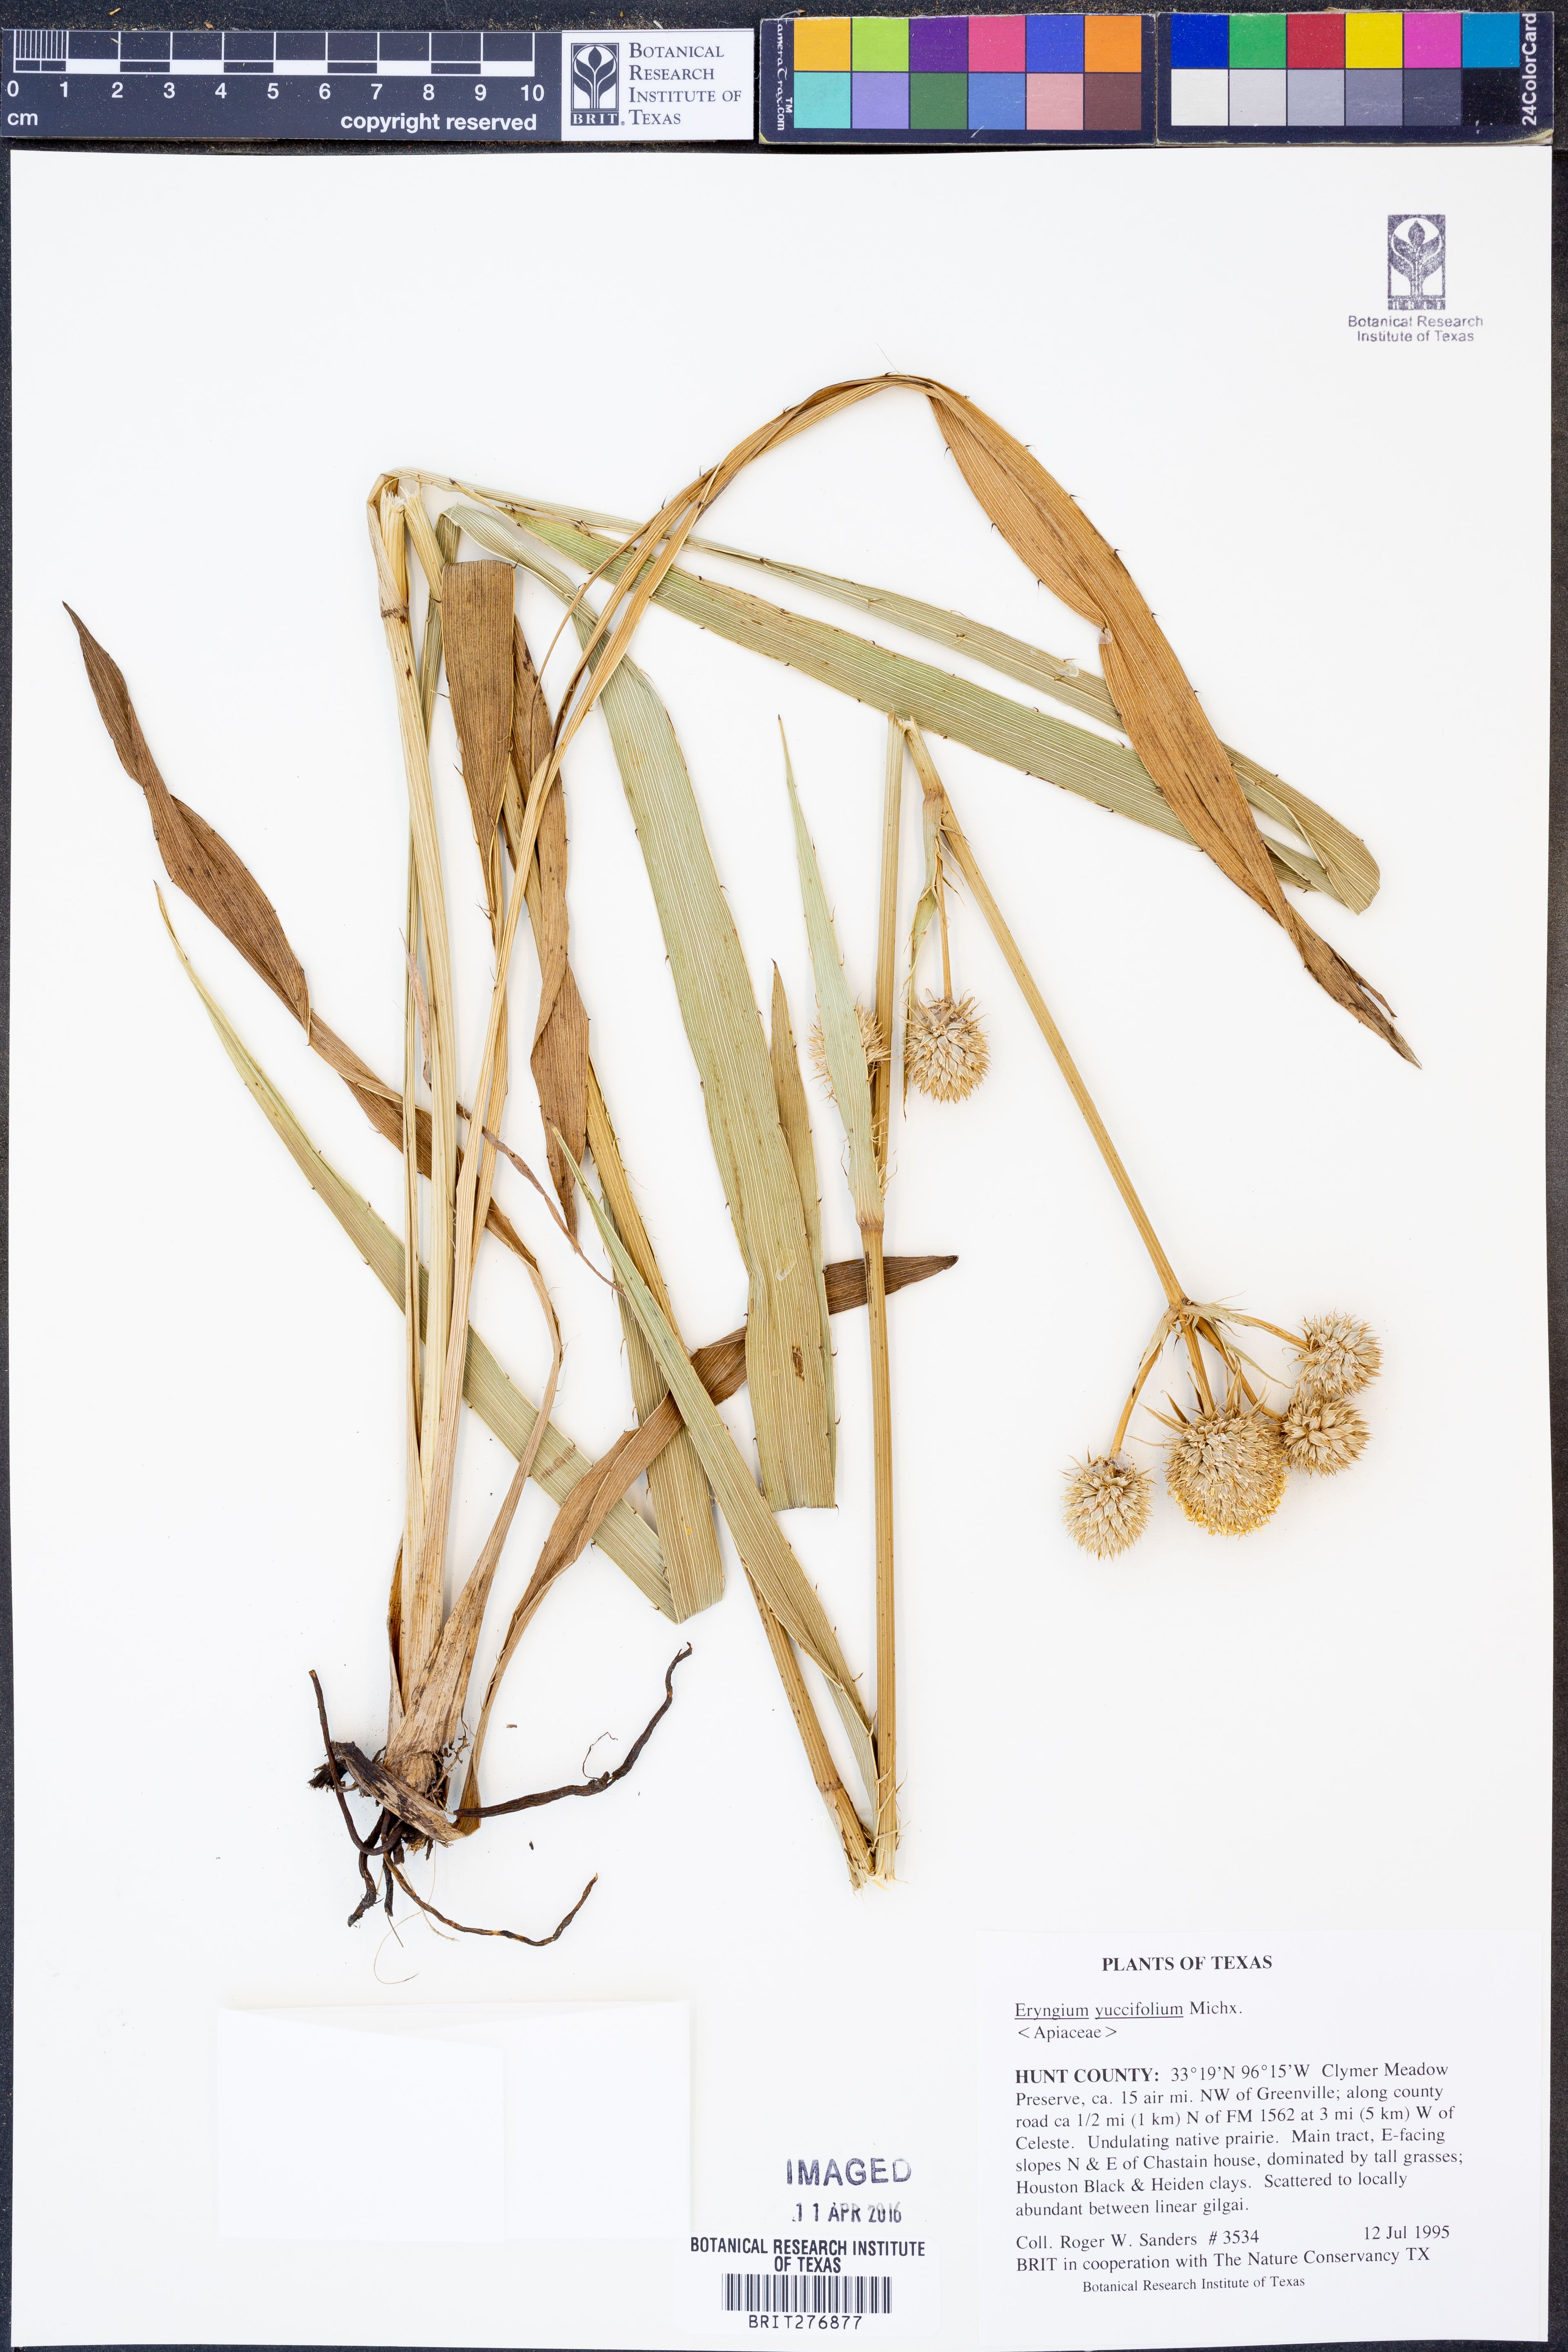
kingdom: Plantae
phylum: Tracheophyta
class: Magnoliopsida
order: Apiales
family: Apiaceae
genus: Eryngium
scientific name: Eryngium yuccifolium
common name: Button eryngo
